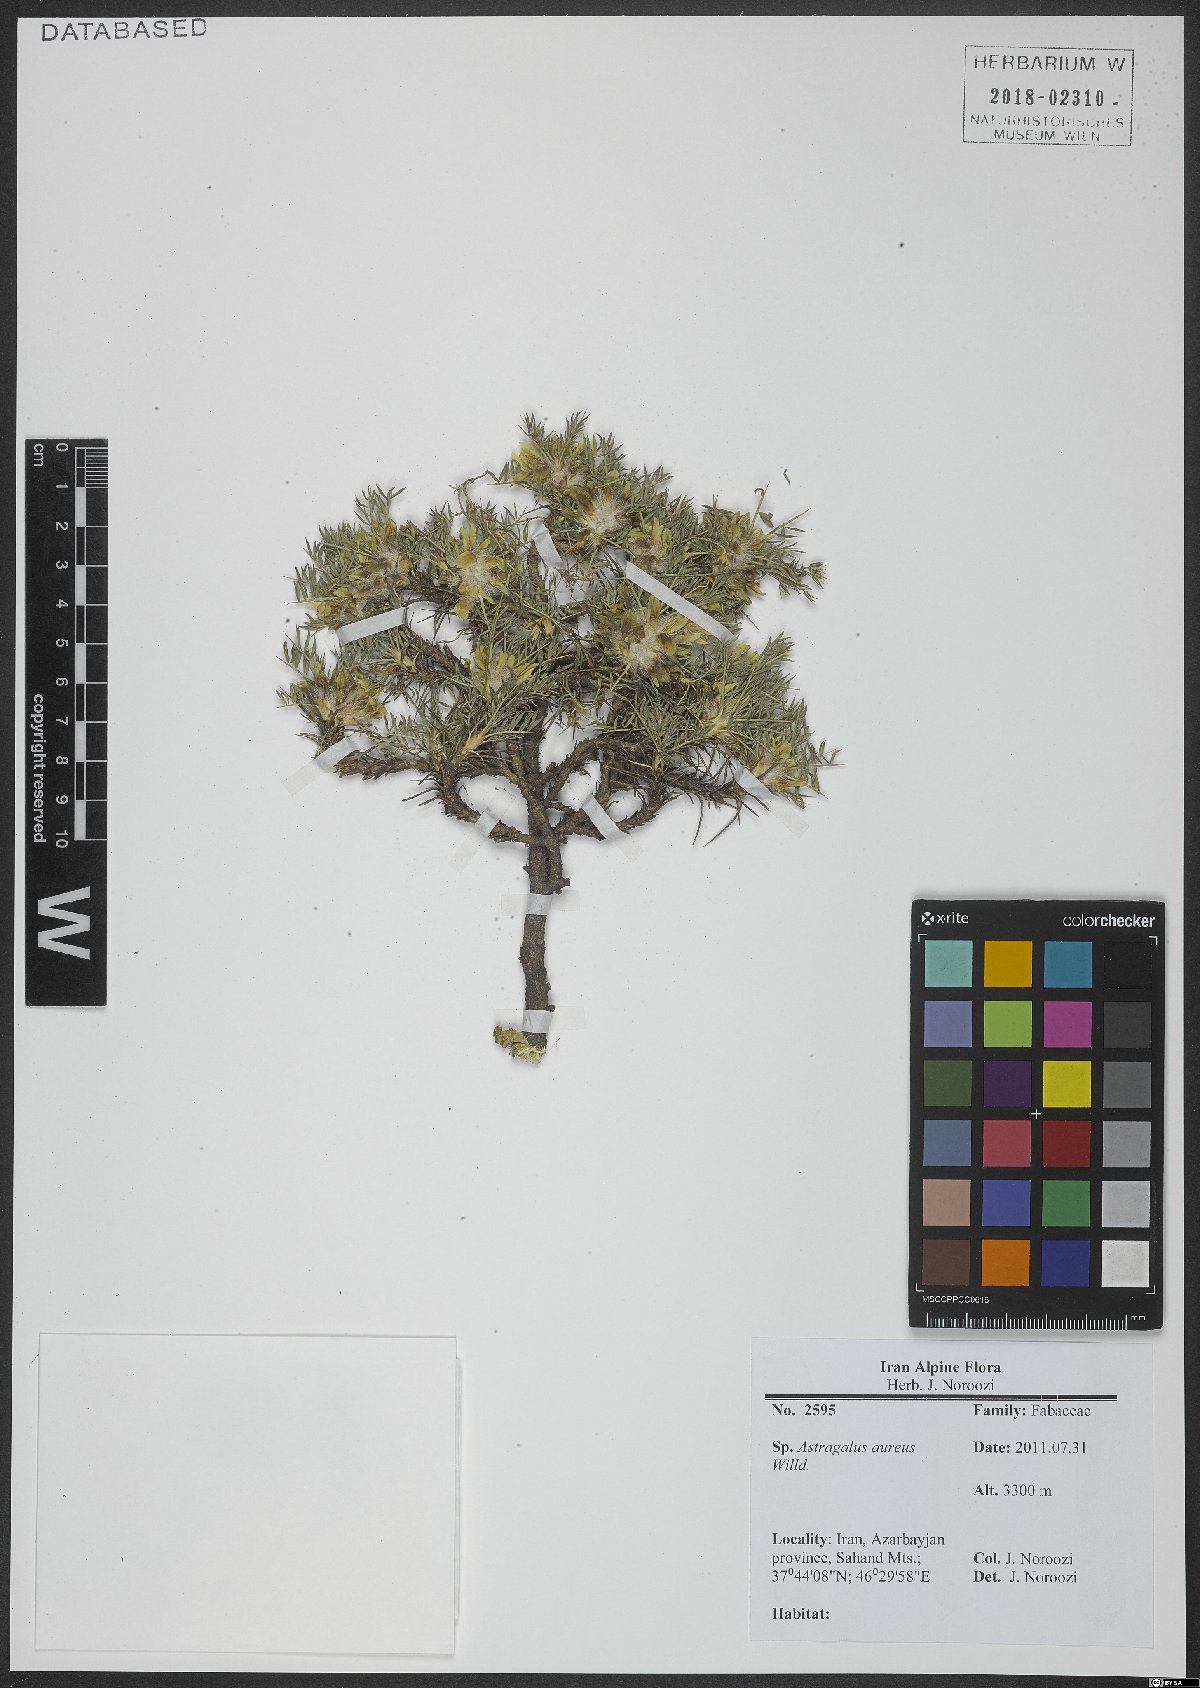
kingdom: Plantae
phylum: Tracheophyta
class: Magnoliopsida
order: Fabales
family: Fabaceae
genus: Astragalus
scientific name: Astragalus aureus
